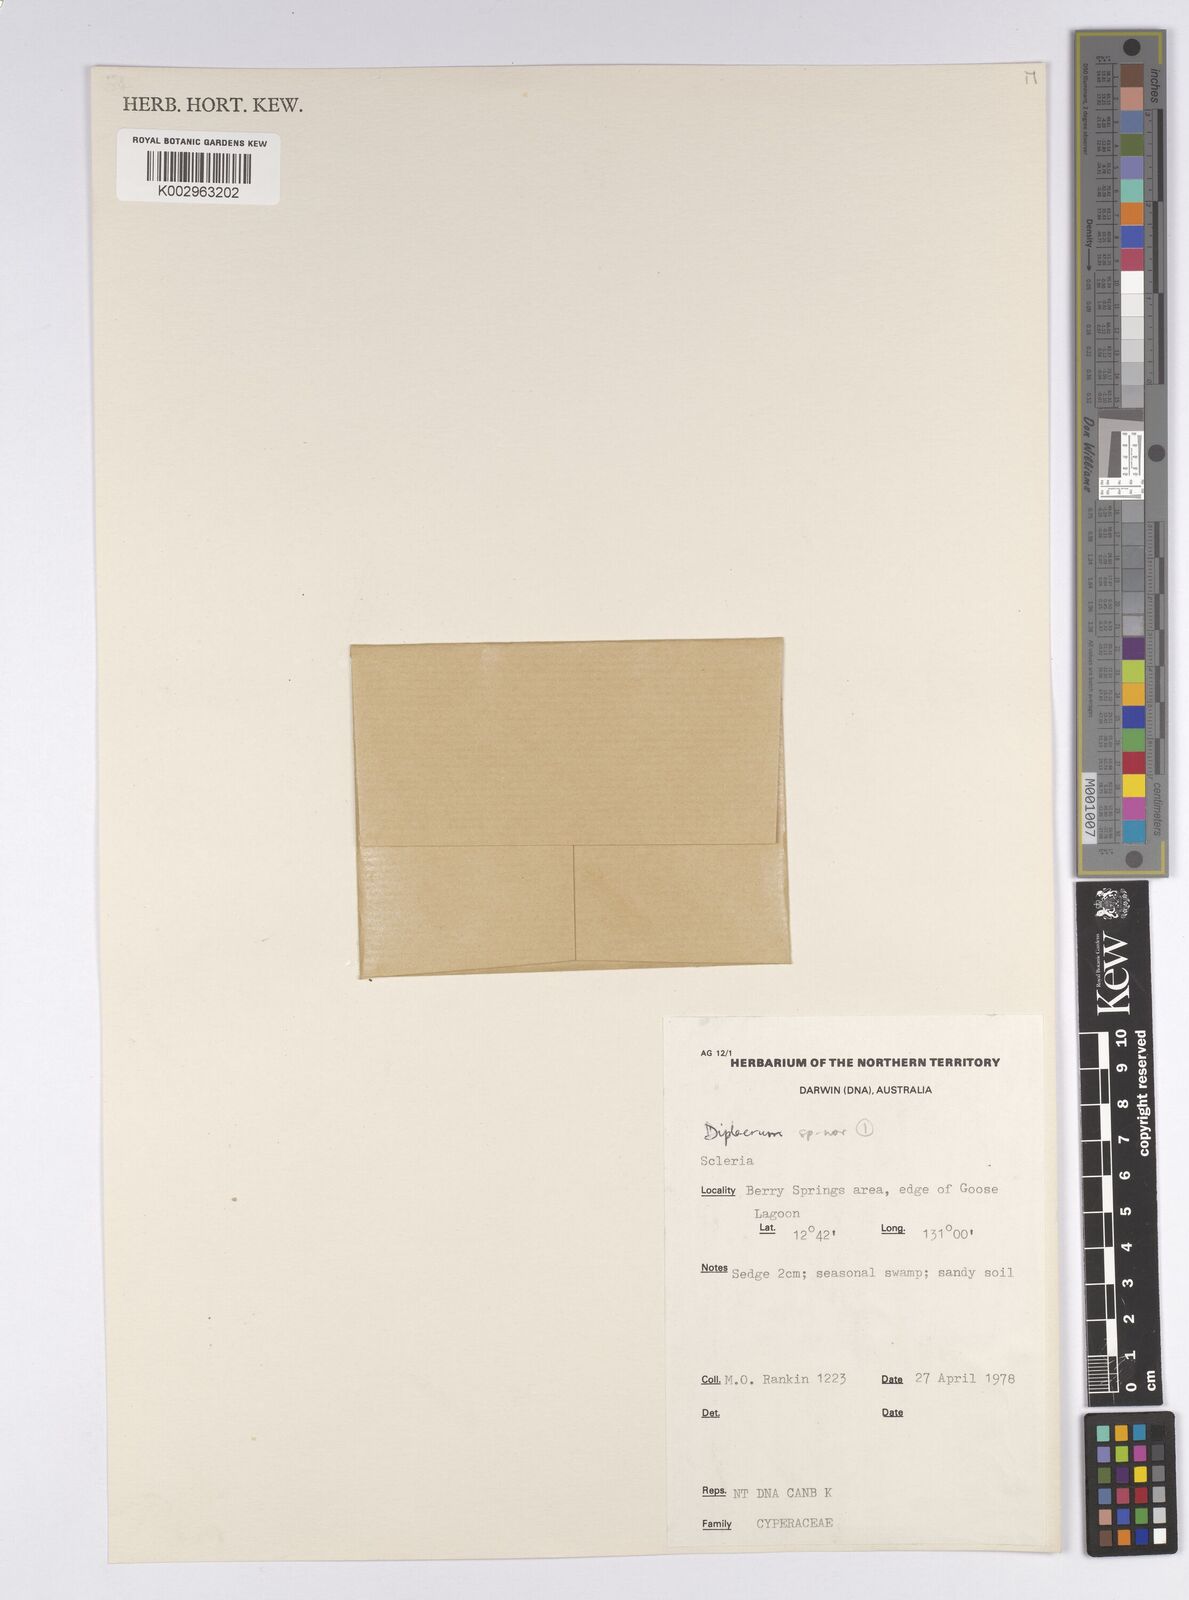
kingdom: Plantae
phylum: Tracheophyta
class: Liliopsida
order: Poales
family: Cyperaceae
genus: Diplacrum
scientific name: Diplacrum
